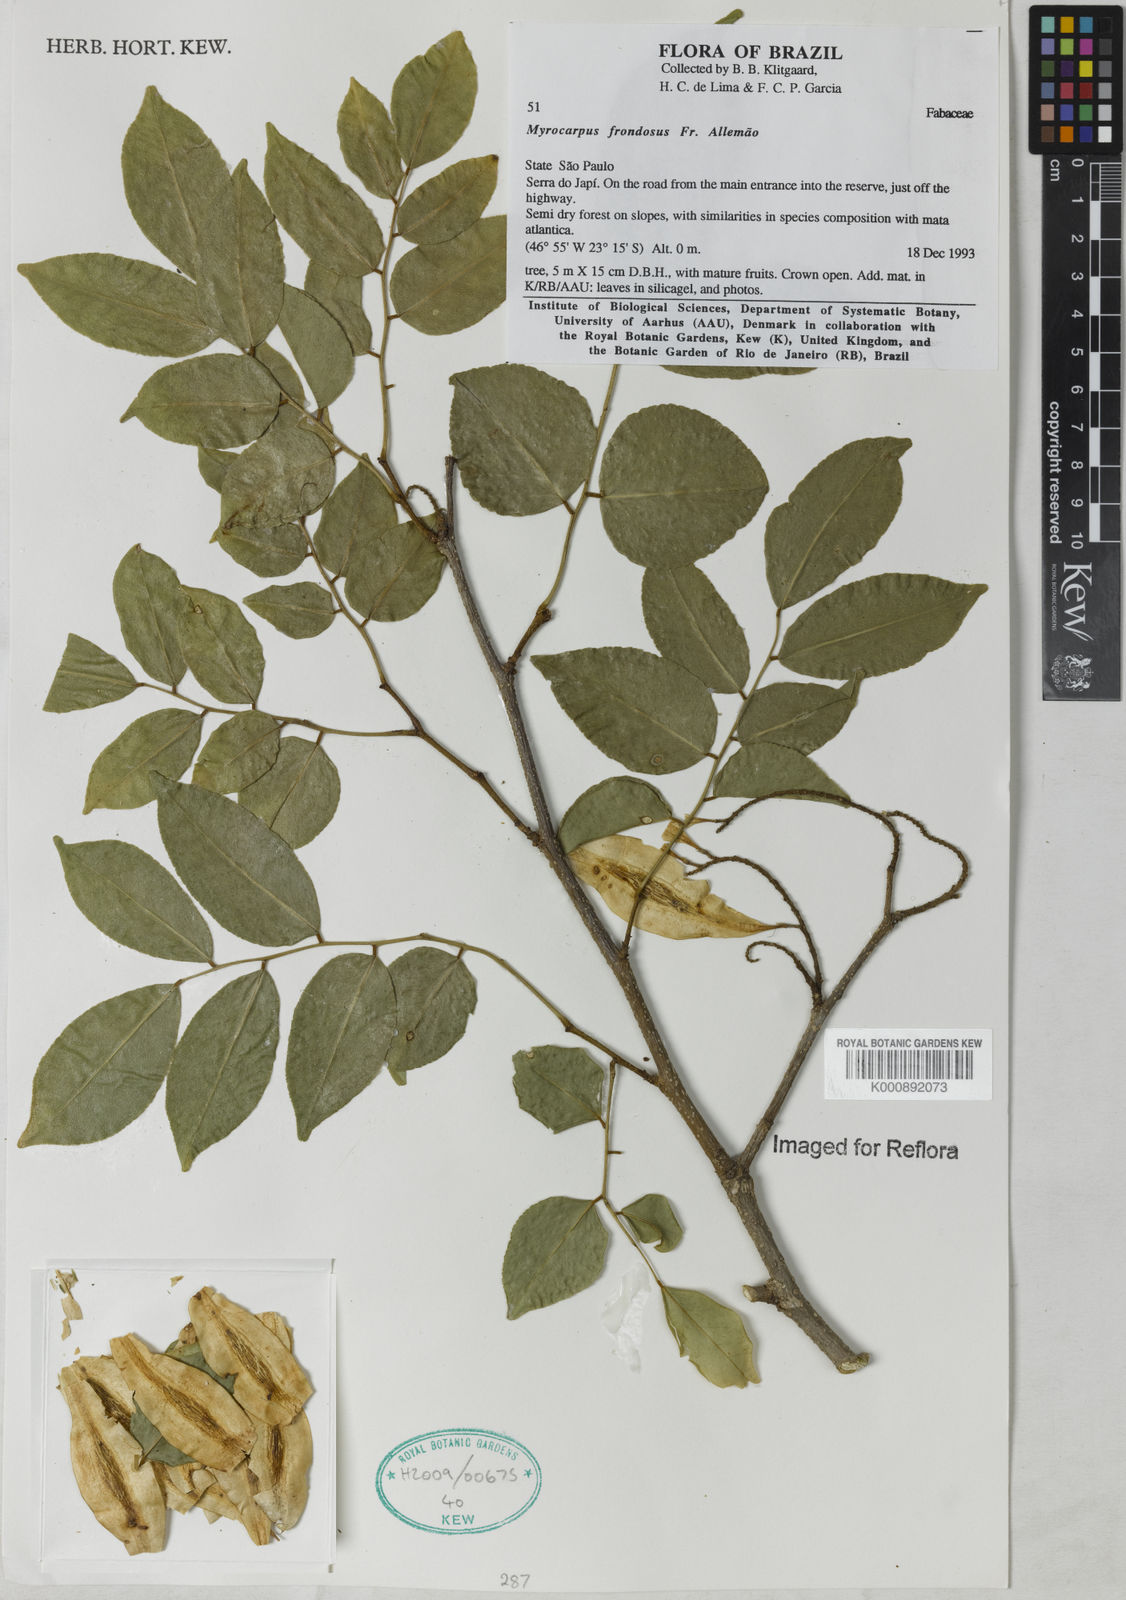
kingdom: Plantae
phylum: Tracheophyta
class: Magnoliopsida
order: Fabales
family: Fabaceae
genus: Myrocarpus
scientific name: Myrocarpus
